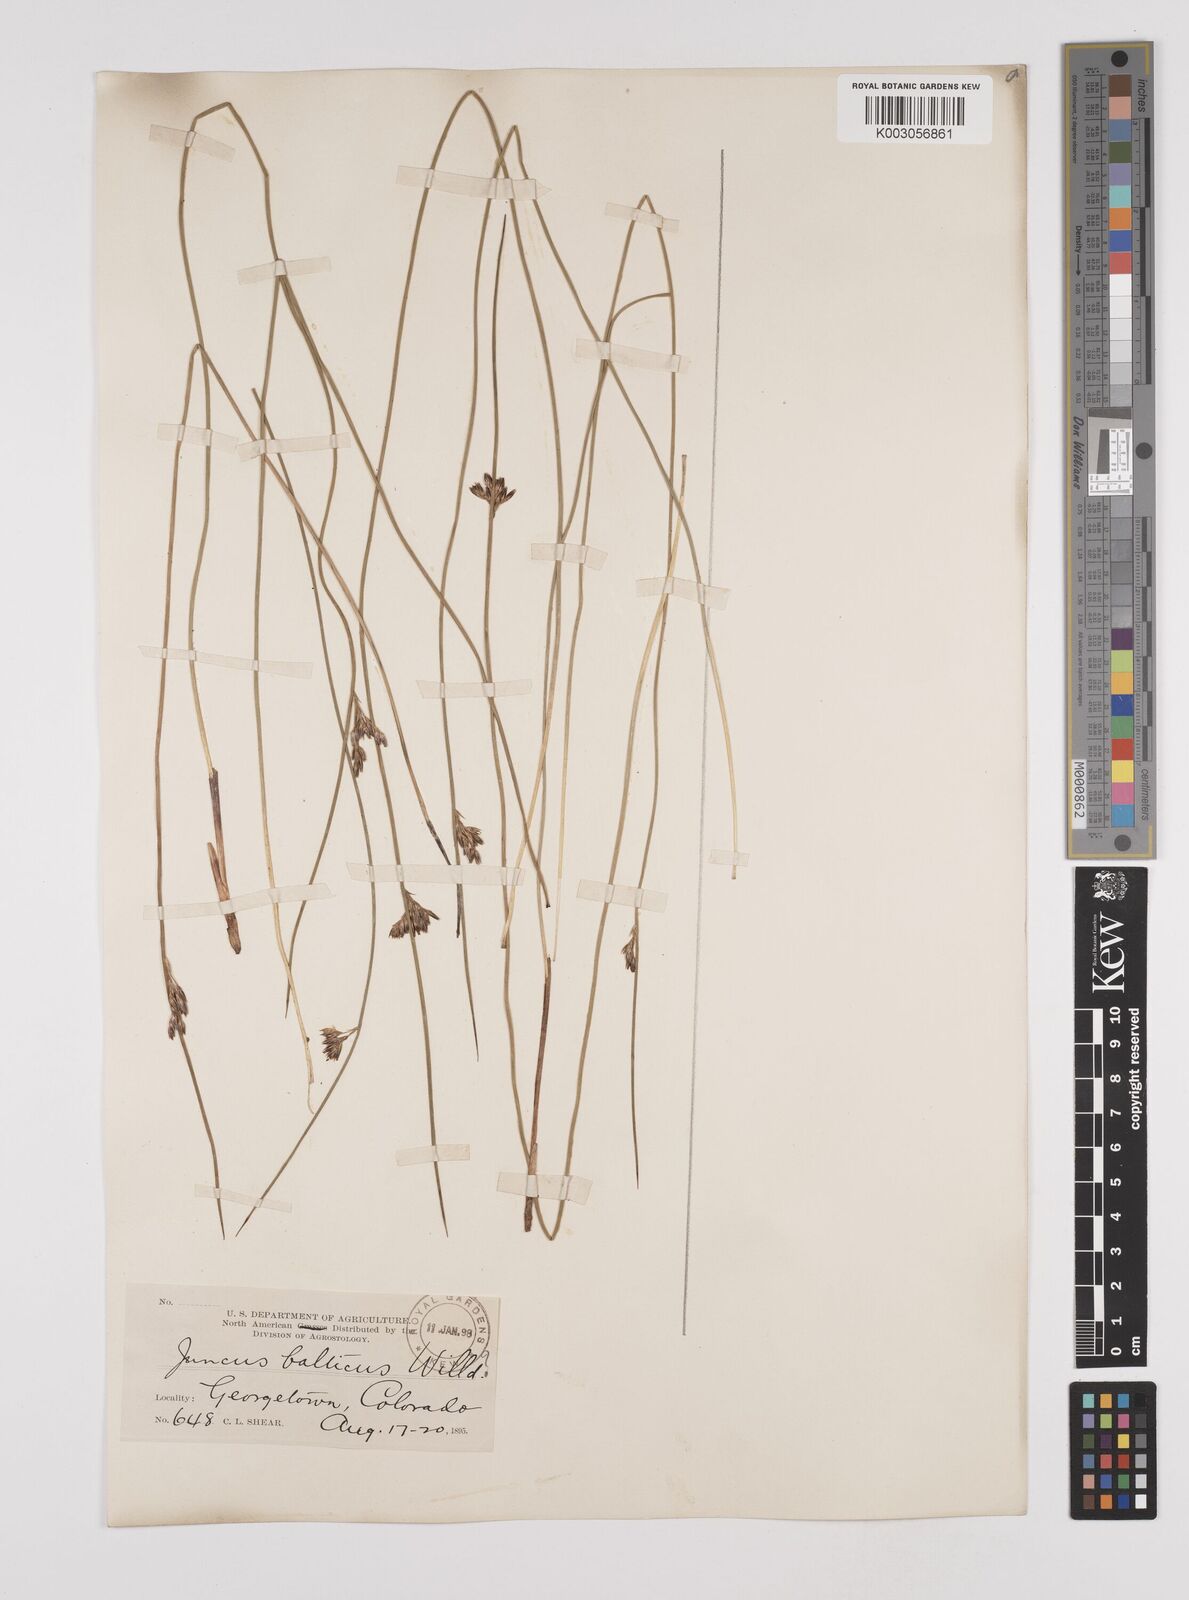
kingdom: Plantae
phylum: Tracheophyta
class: Liliopsida
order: Poales
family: Juncaceae
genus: Juncus
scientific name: Juncus balticus
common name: Baltic rush
